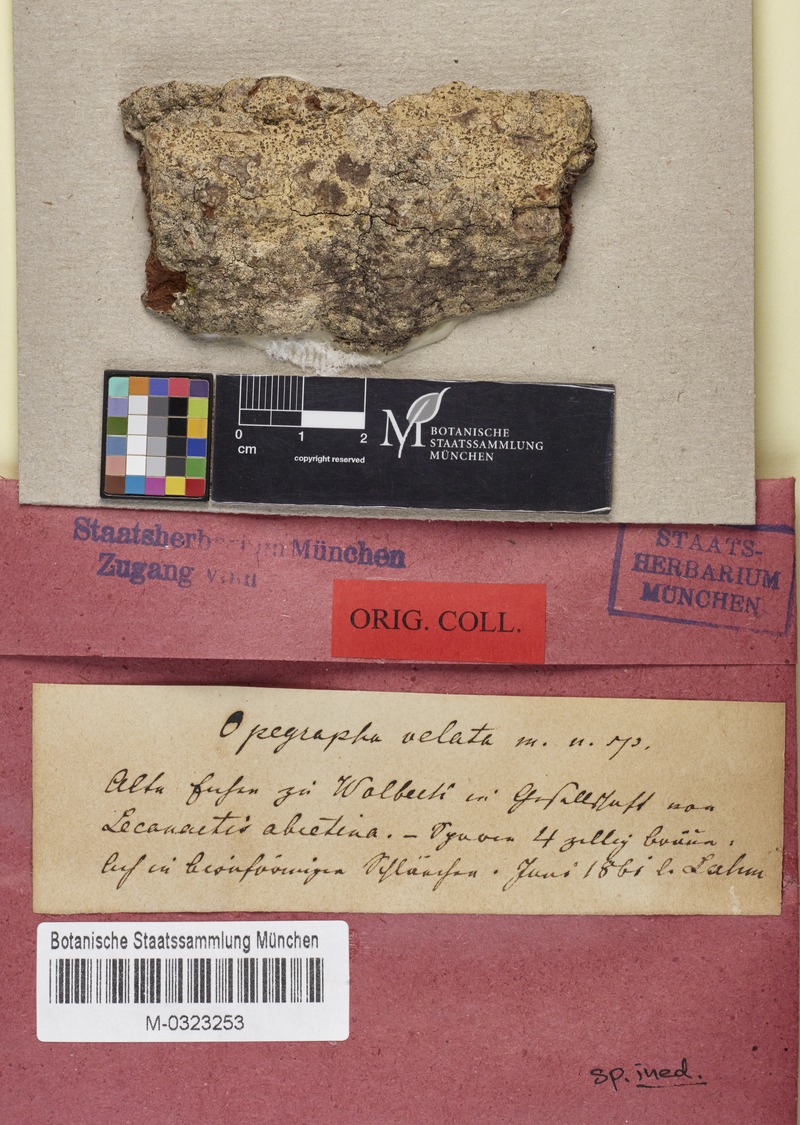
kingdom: Fungi
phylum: Ascomycota
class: Arthoniomycetes
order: Arthoniales
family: Opegraphaceae
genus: Opegrapha
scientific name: Opegrapha
